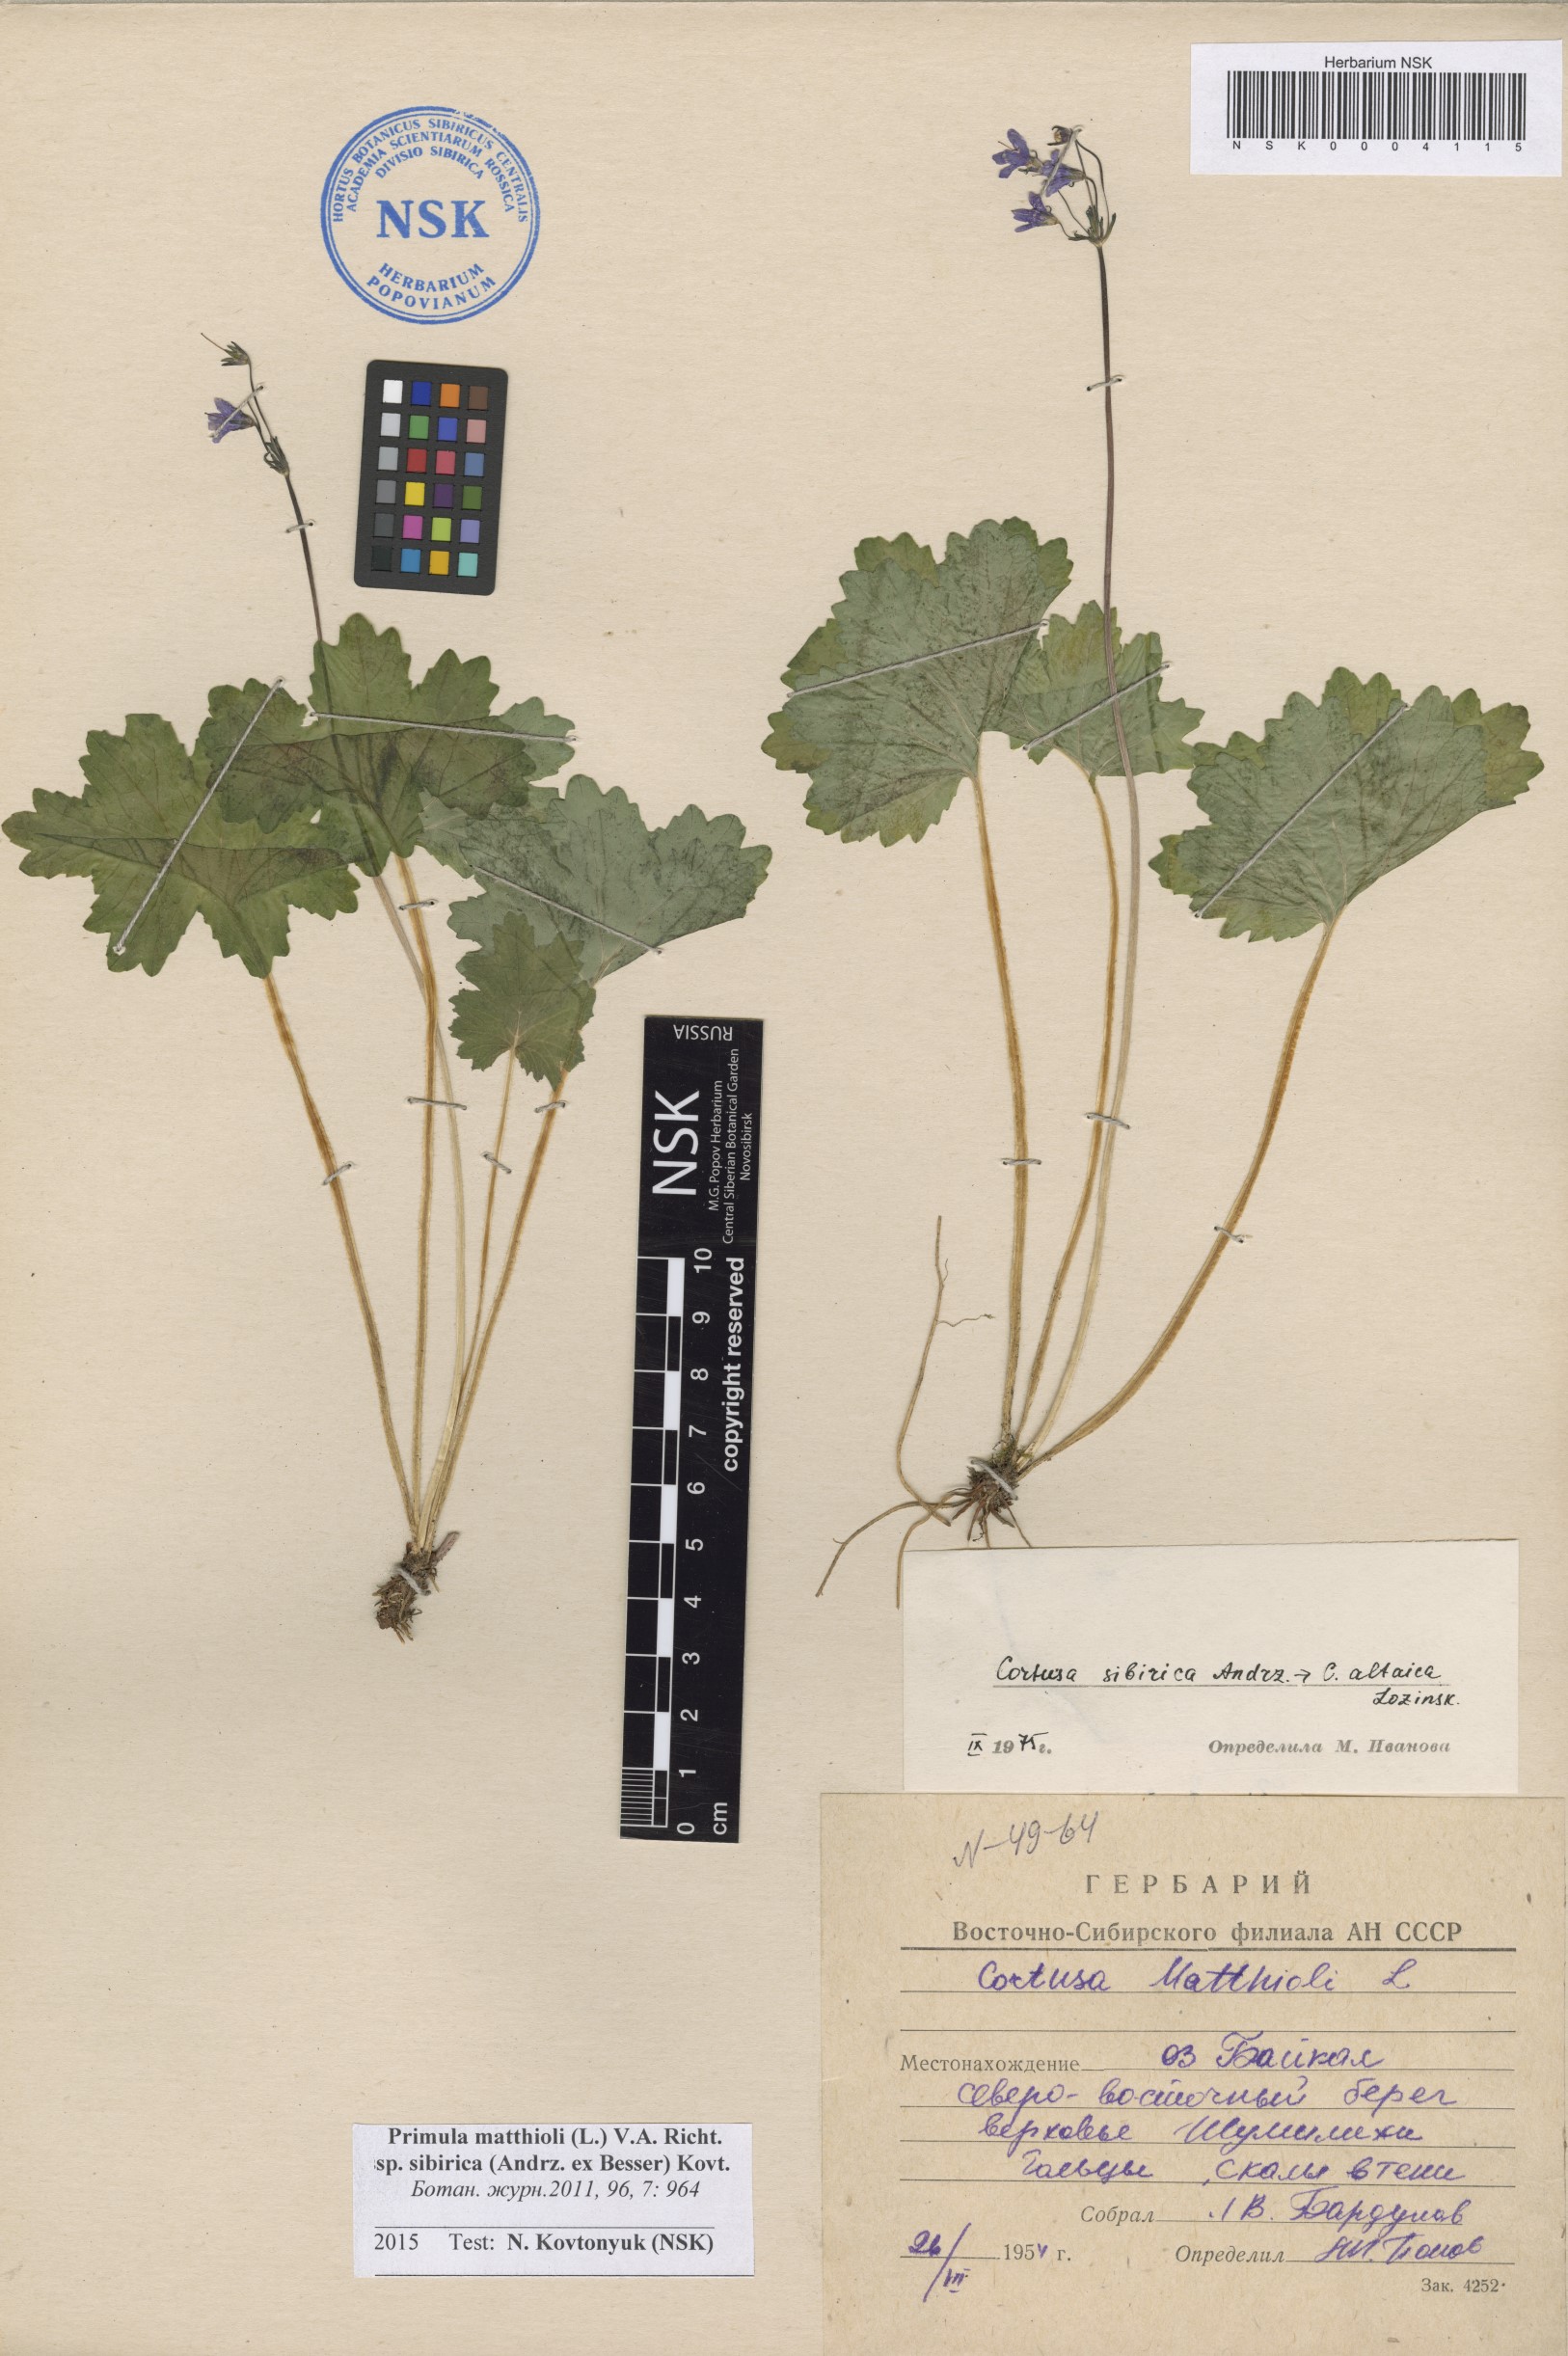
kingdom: Plantae
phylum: Tracheophyta
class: Magnoliopsida
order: Ericales
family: Primulaceae
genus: Primula
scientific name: Primula matthioli
